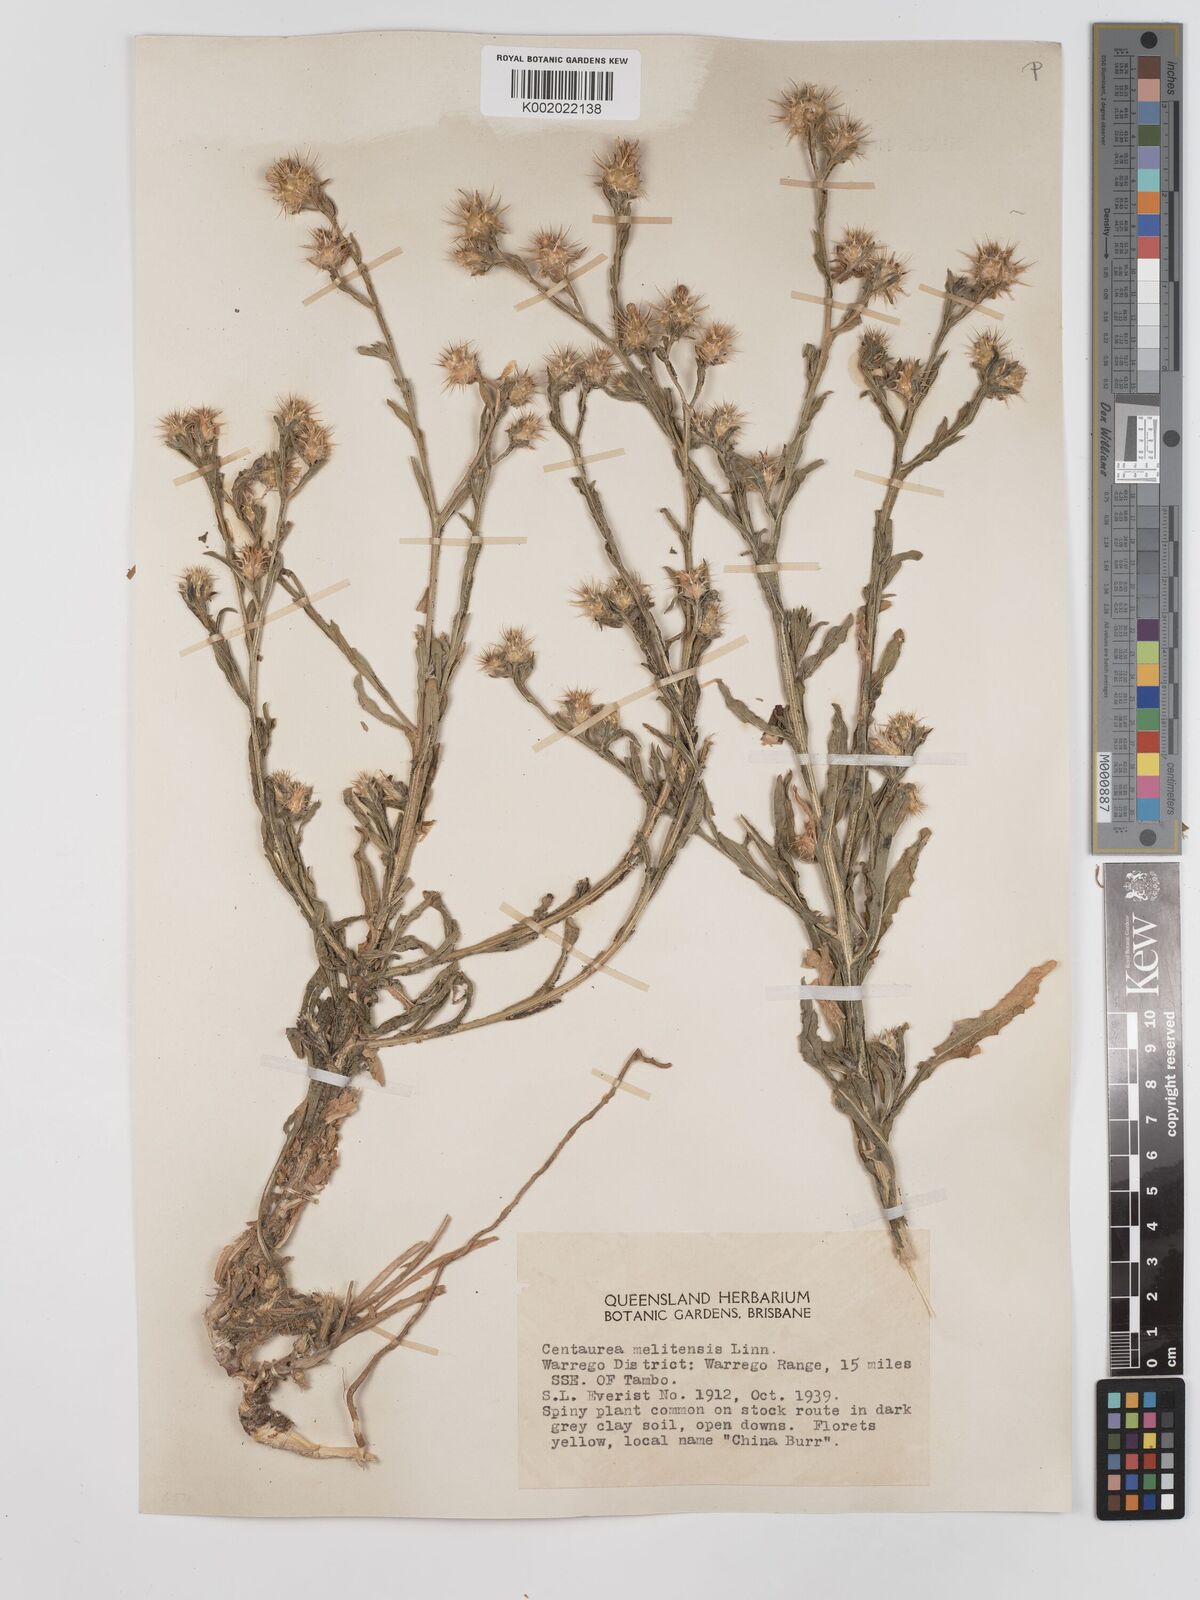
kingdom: Plantae
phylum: Tracheophyta
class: Magnoliopsida
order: Asterales
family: Asteraceae
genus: Centaurea
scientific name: Centaurea melitensis
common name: Maltese star-thistle
